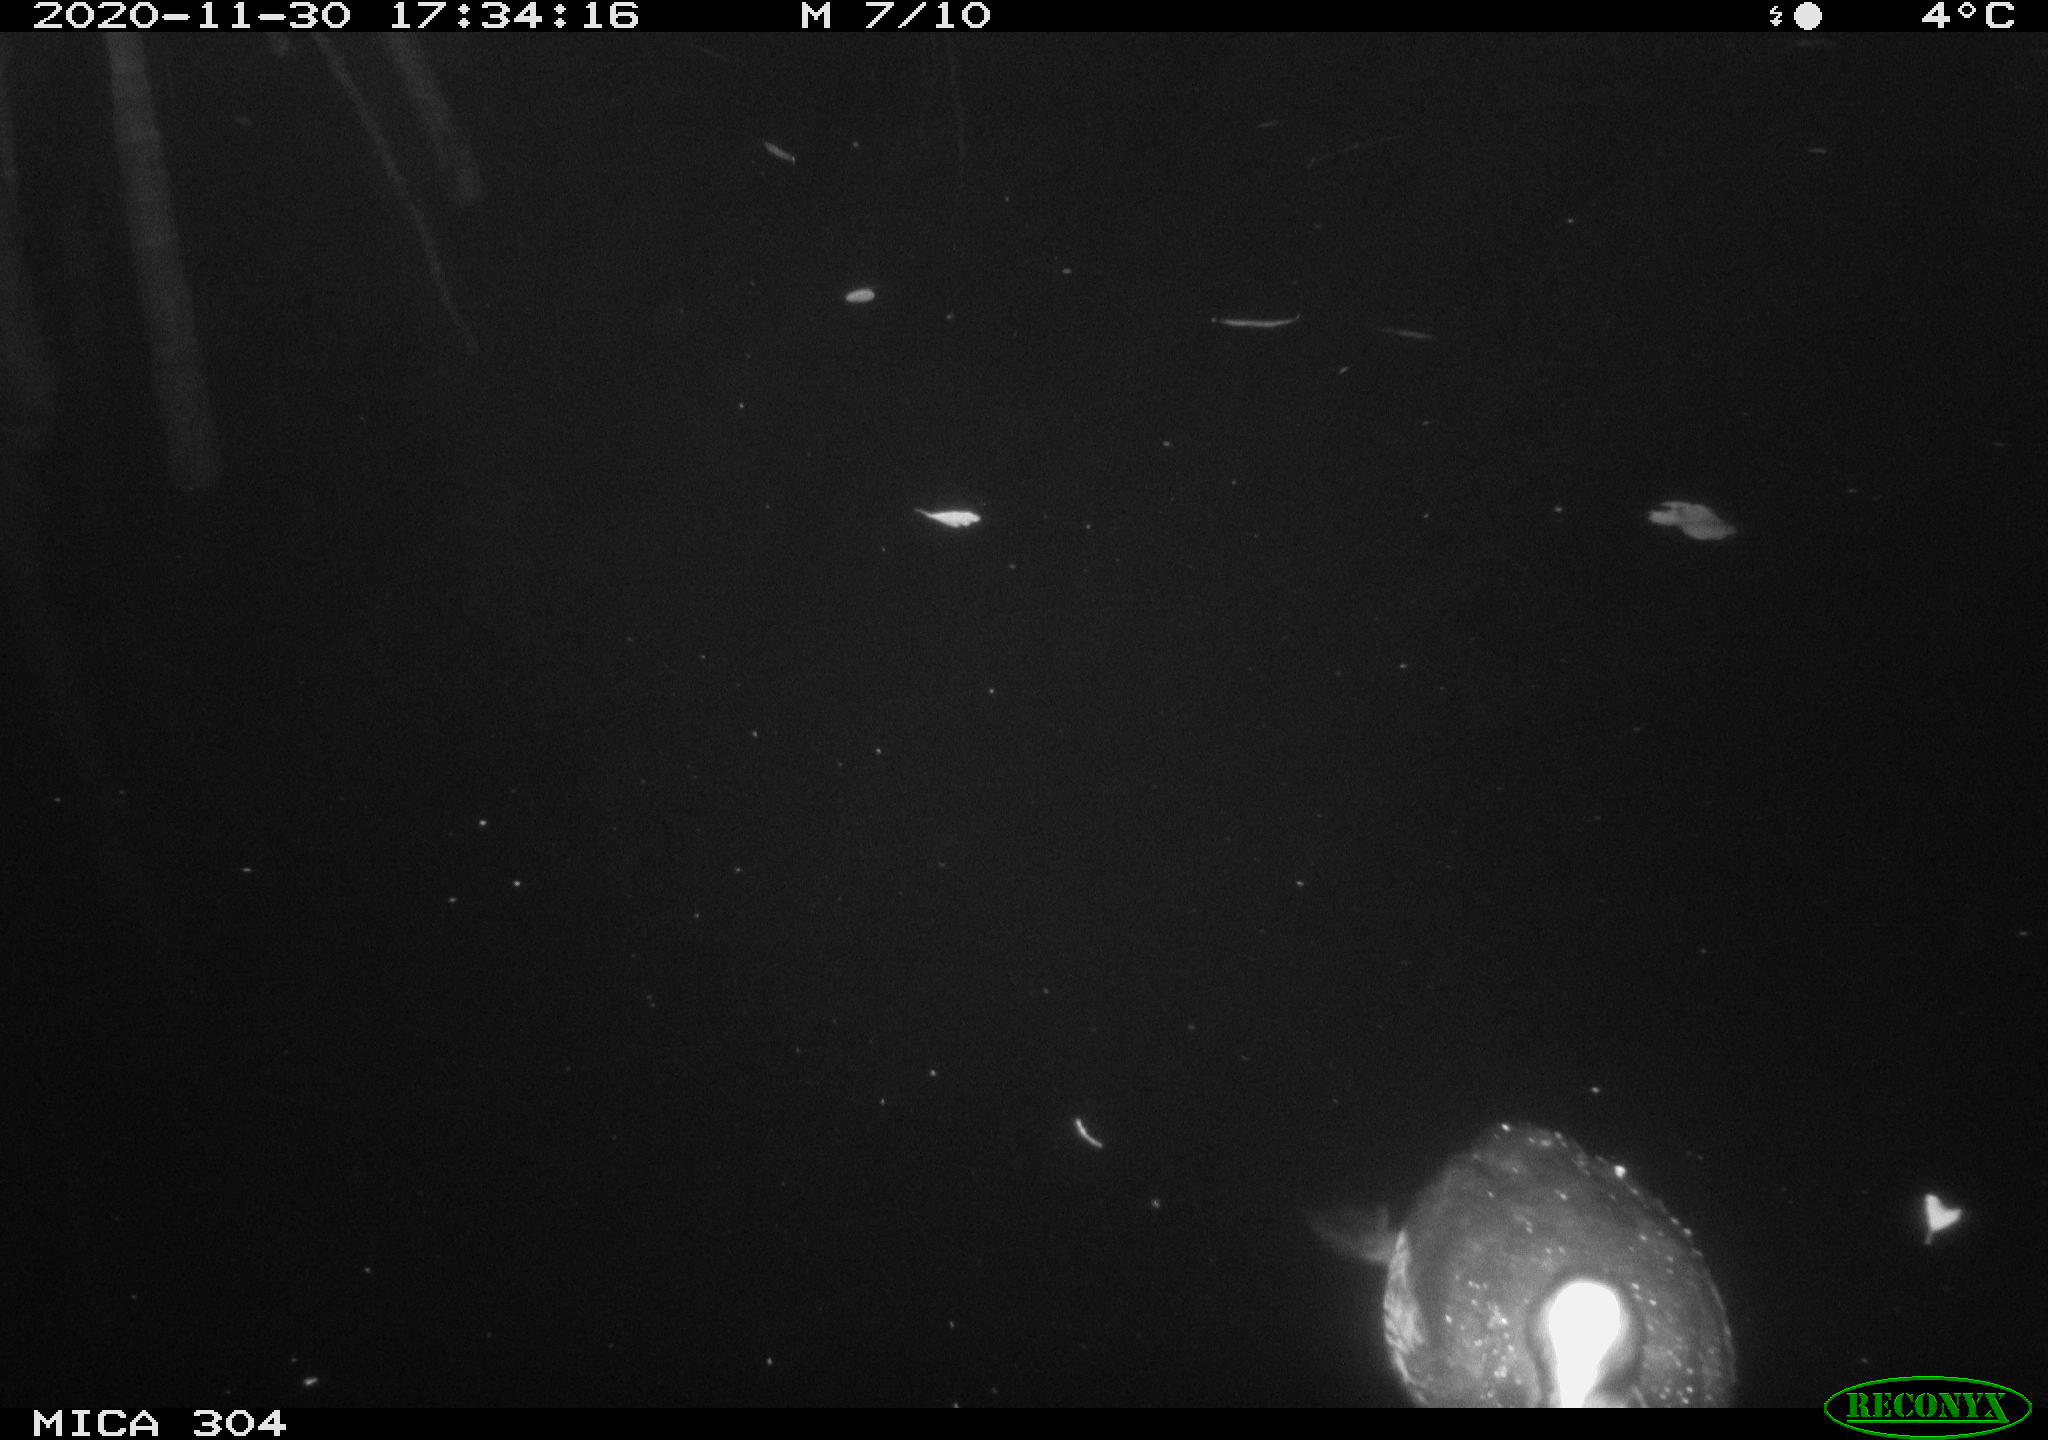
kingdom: Animalia
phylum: Chordata
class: Aves
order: Gruiformes
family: Rallidae
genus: Fulica
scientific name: Fulica atra
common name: Eurasian coot
